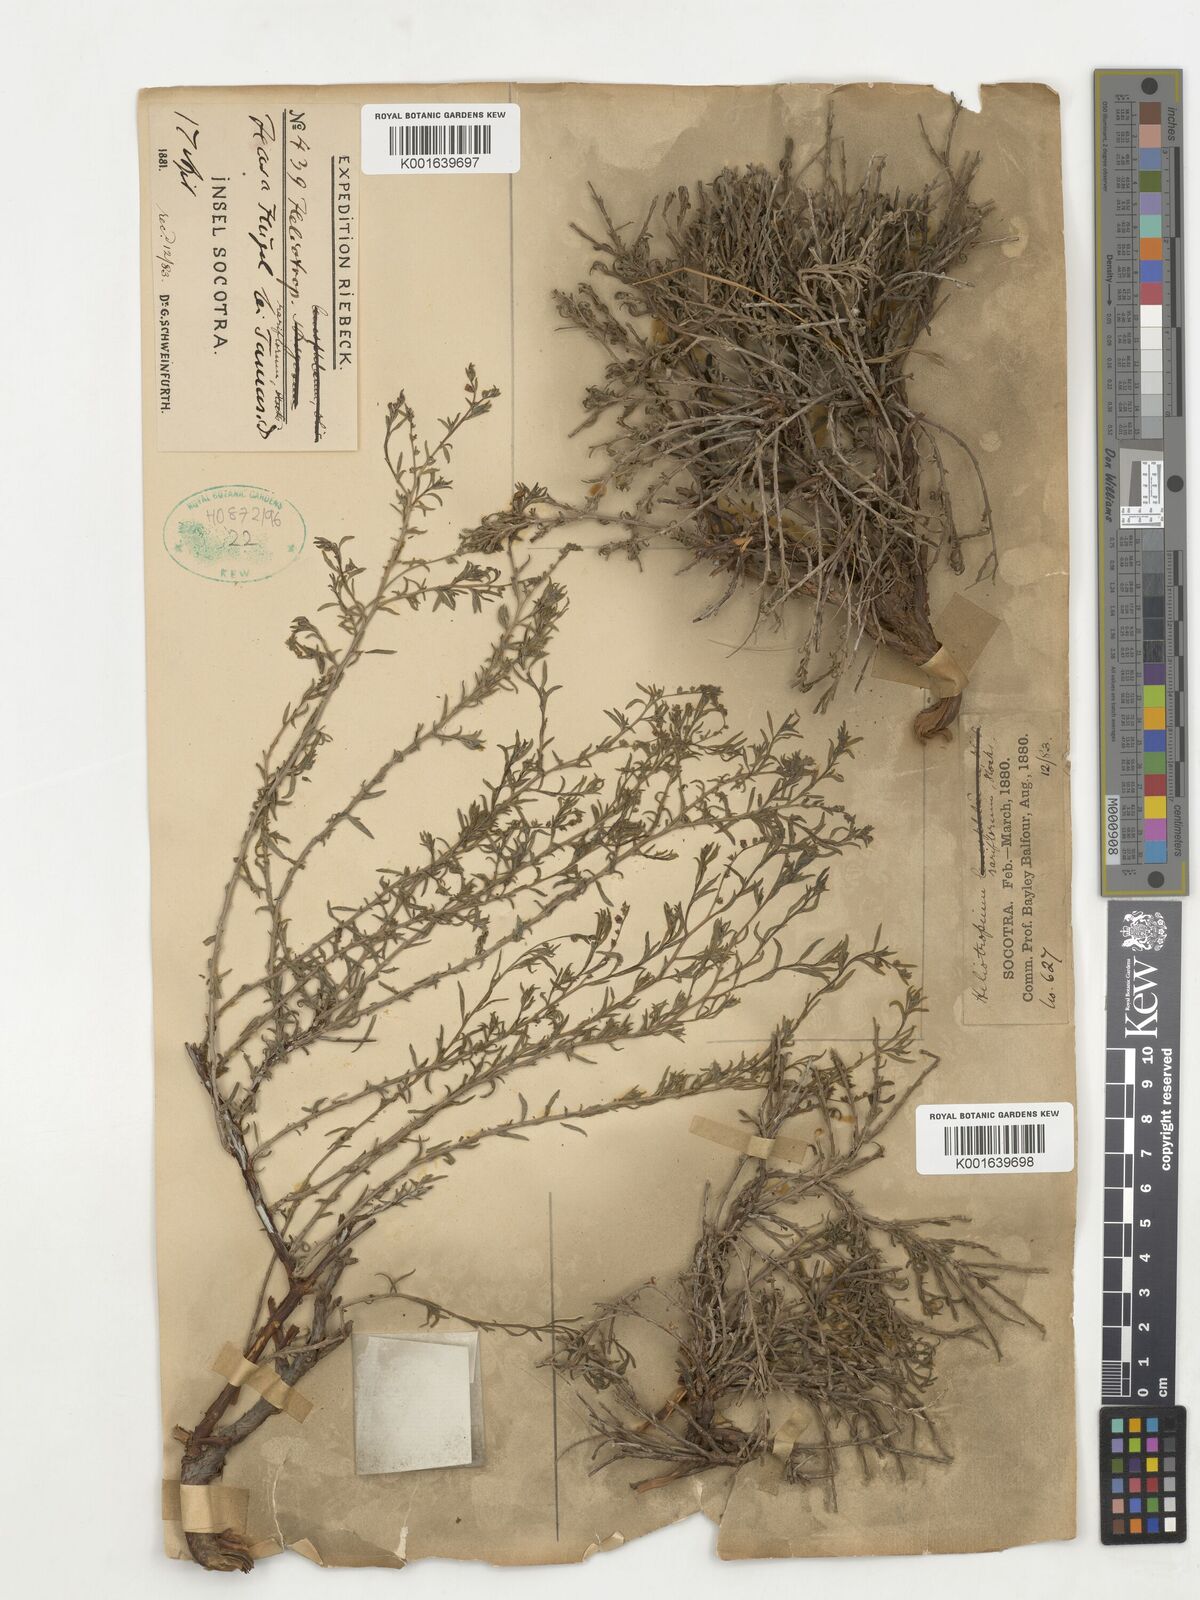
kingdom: Plantae
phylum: Tracheophyta
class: Magnoliopsida
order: Boraginales
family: Heliotropiaceae
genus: Euploca
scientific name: Euploca rariflora
